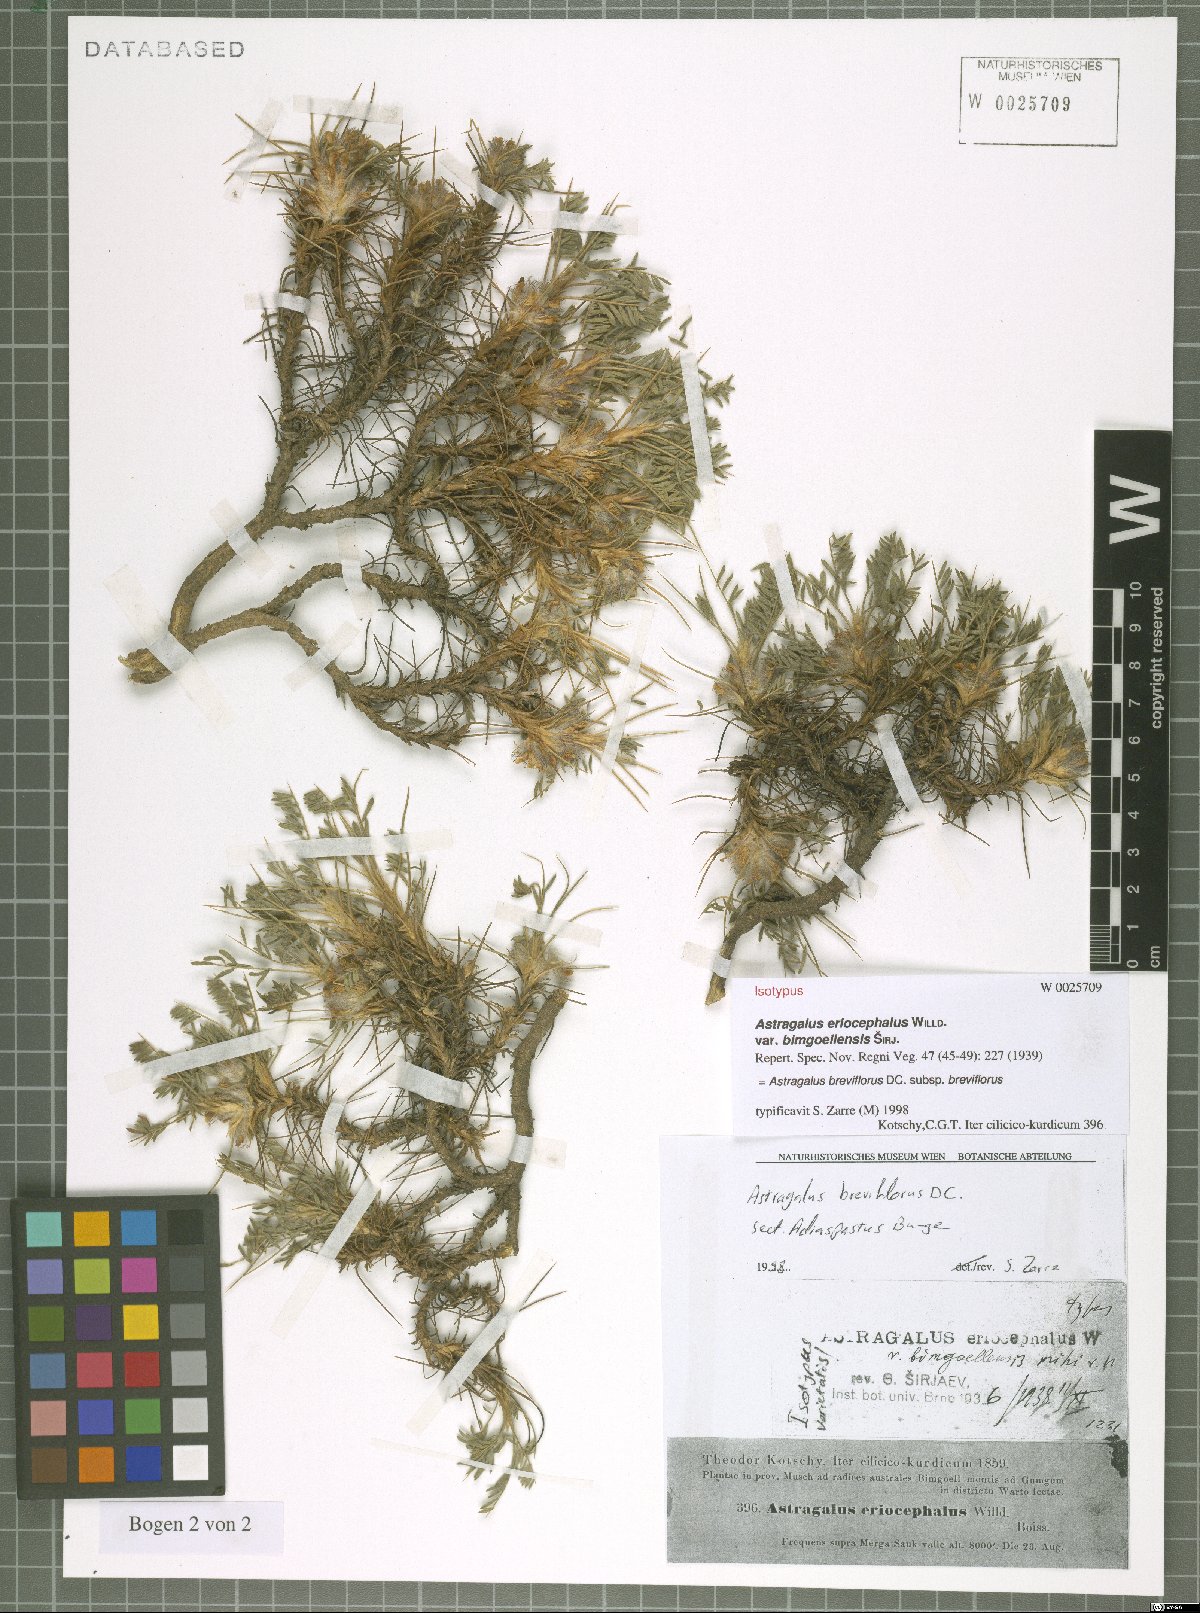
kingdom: Plantae
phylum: Tracheophyta
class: Magnoliopsida
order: Fabales
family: Fabaceae
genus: Astragalus
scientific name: Astragalus breviflorus
